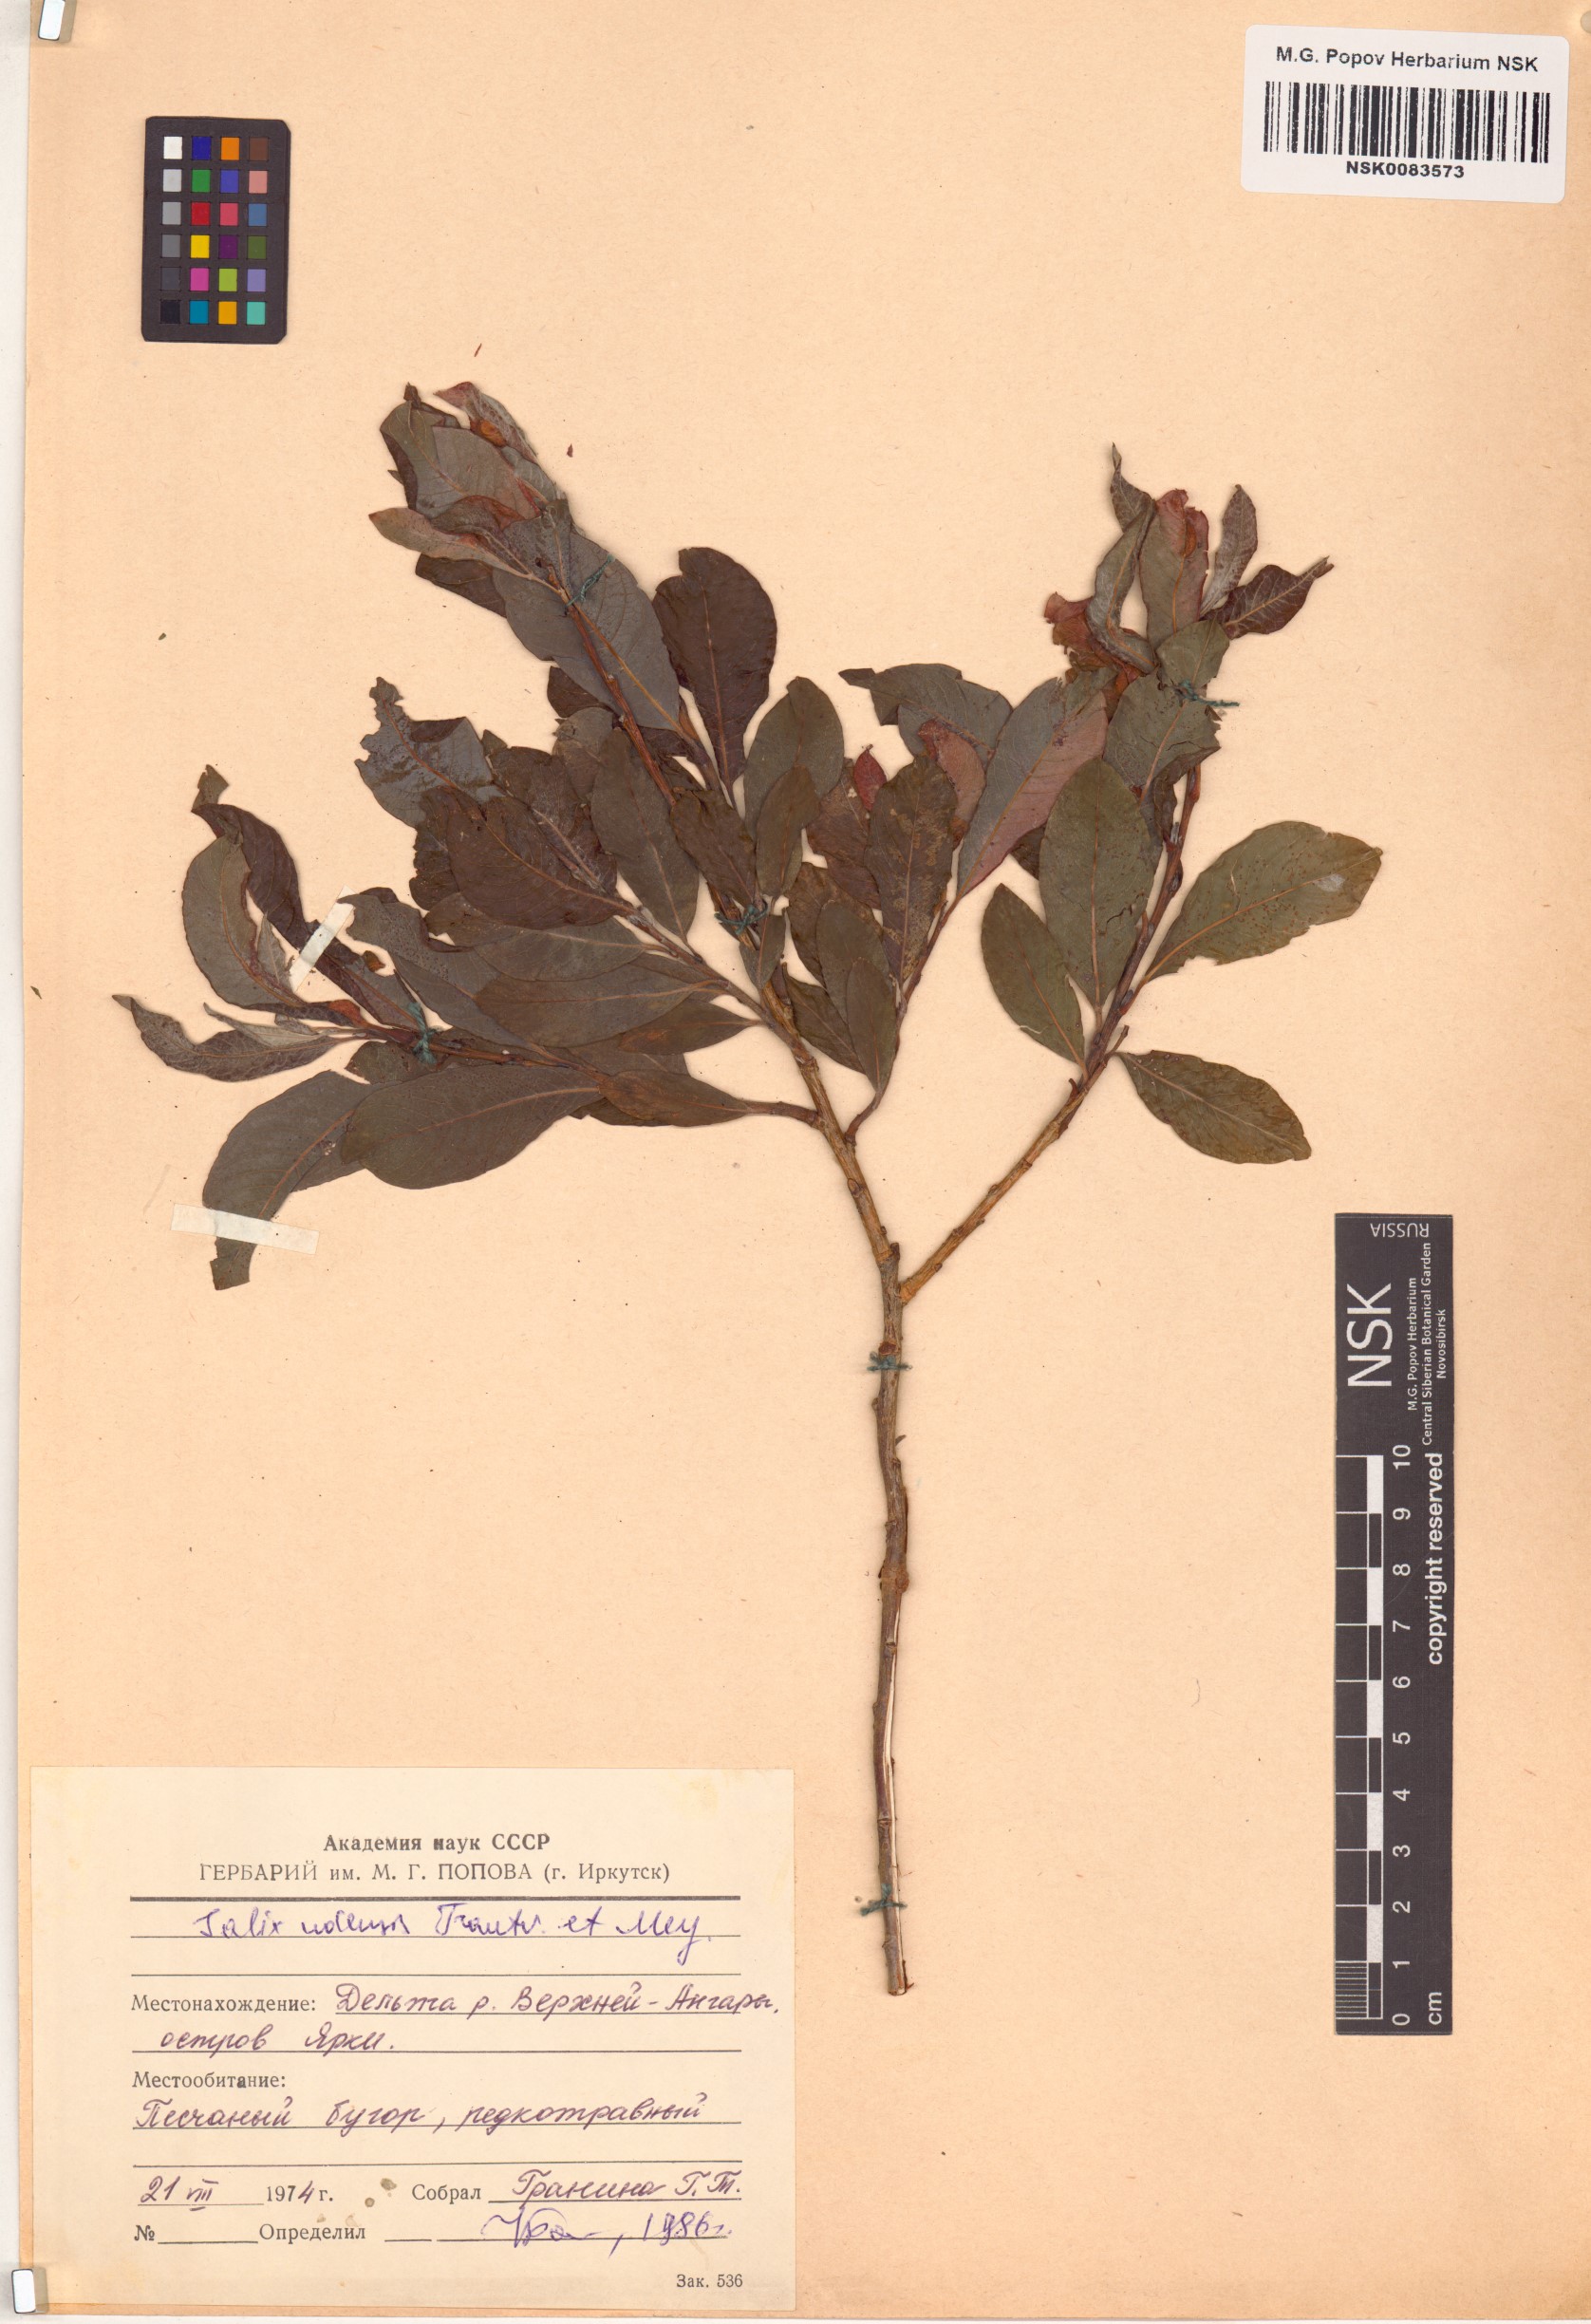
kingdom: Plantae
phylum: Tracheophyta
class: Magnoliopsida
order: Malpighiales
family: Salicaceae
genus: Salix
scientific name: Salix udensis
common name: Sachalin willow
